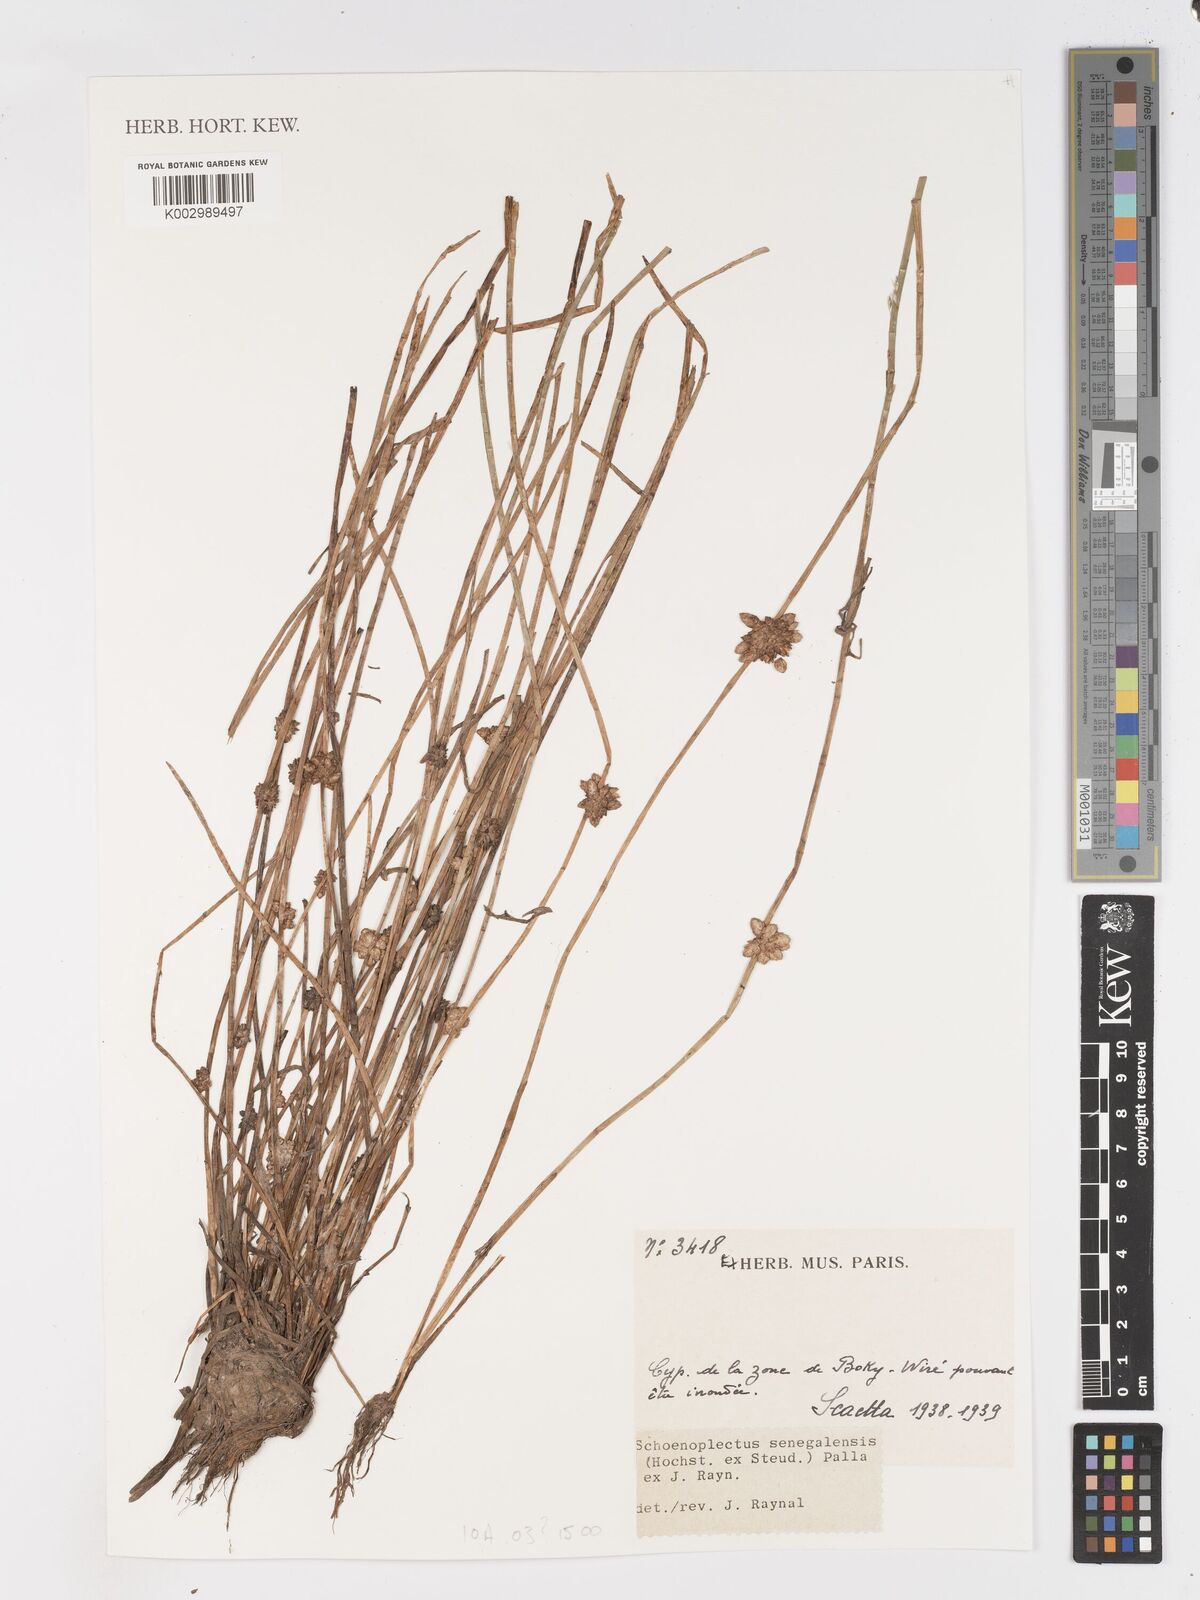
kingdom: Plantae
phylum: Tracheophyta
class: Liliopsida
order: Poales
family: Cyperaceae
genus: Schoenoplectiella
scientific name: Schoenoplectiella senegalensis
